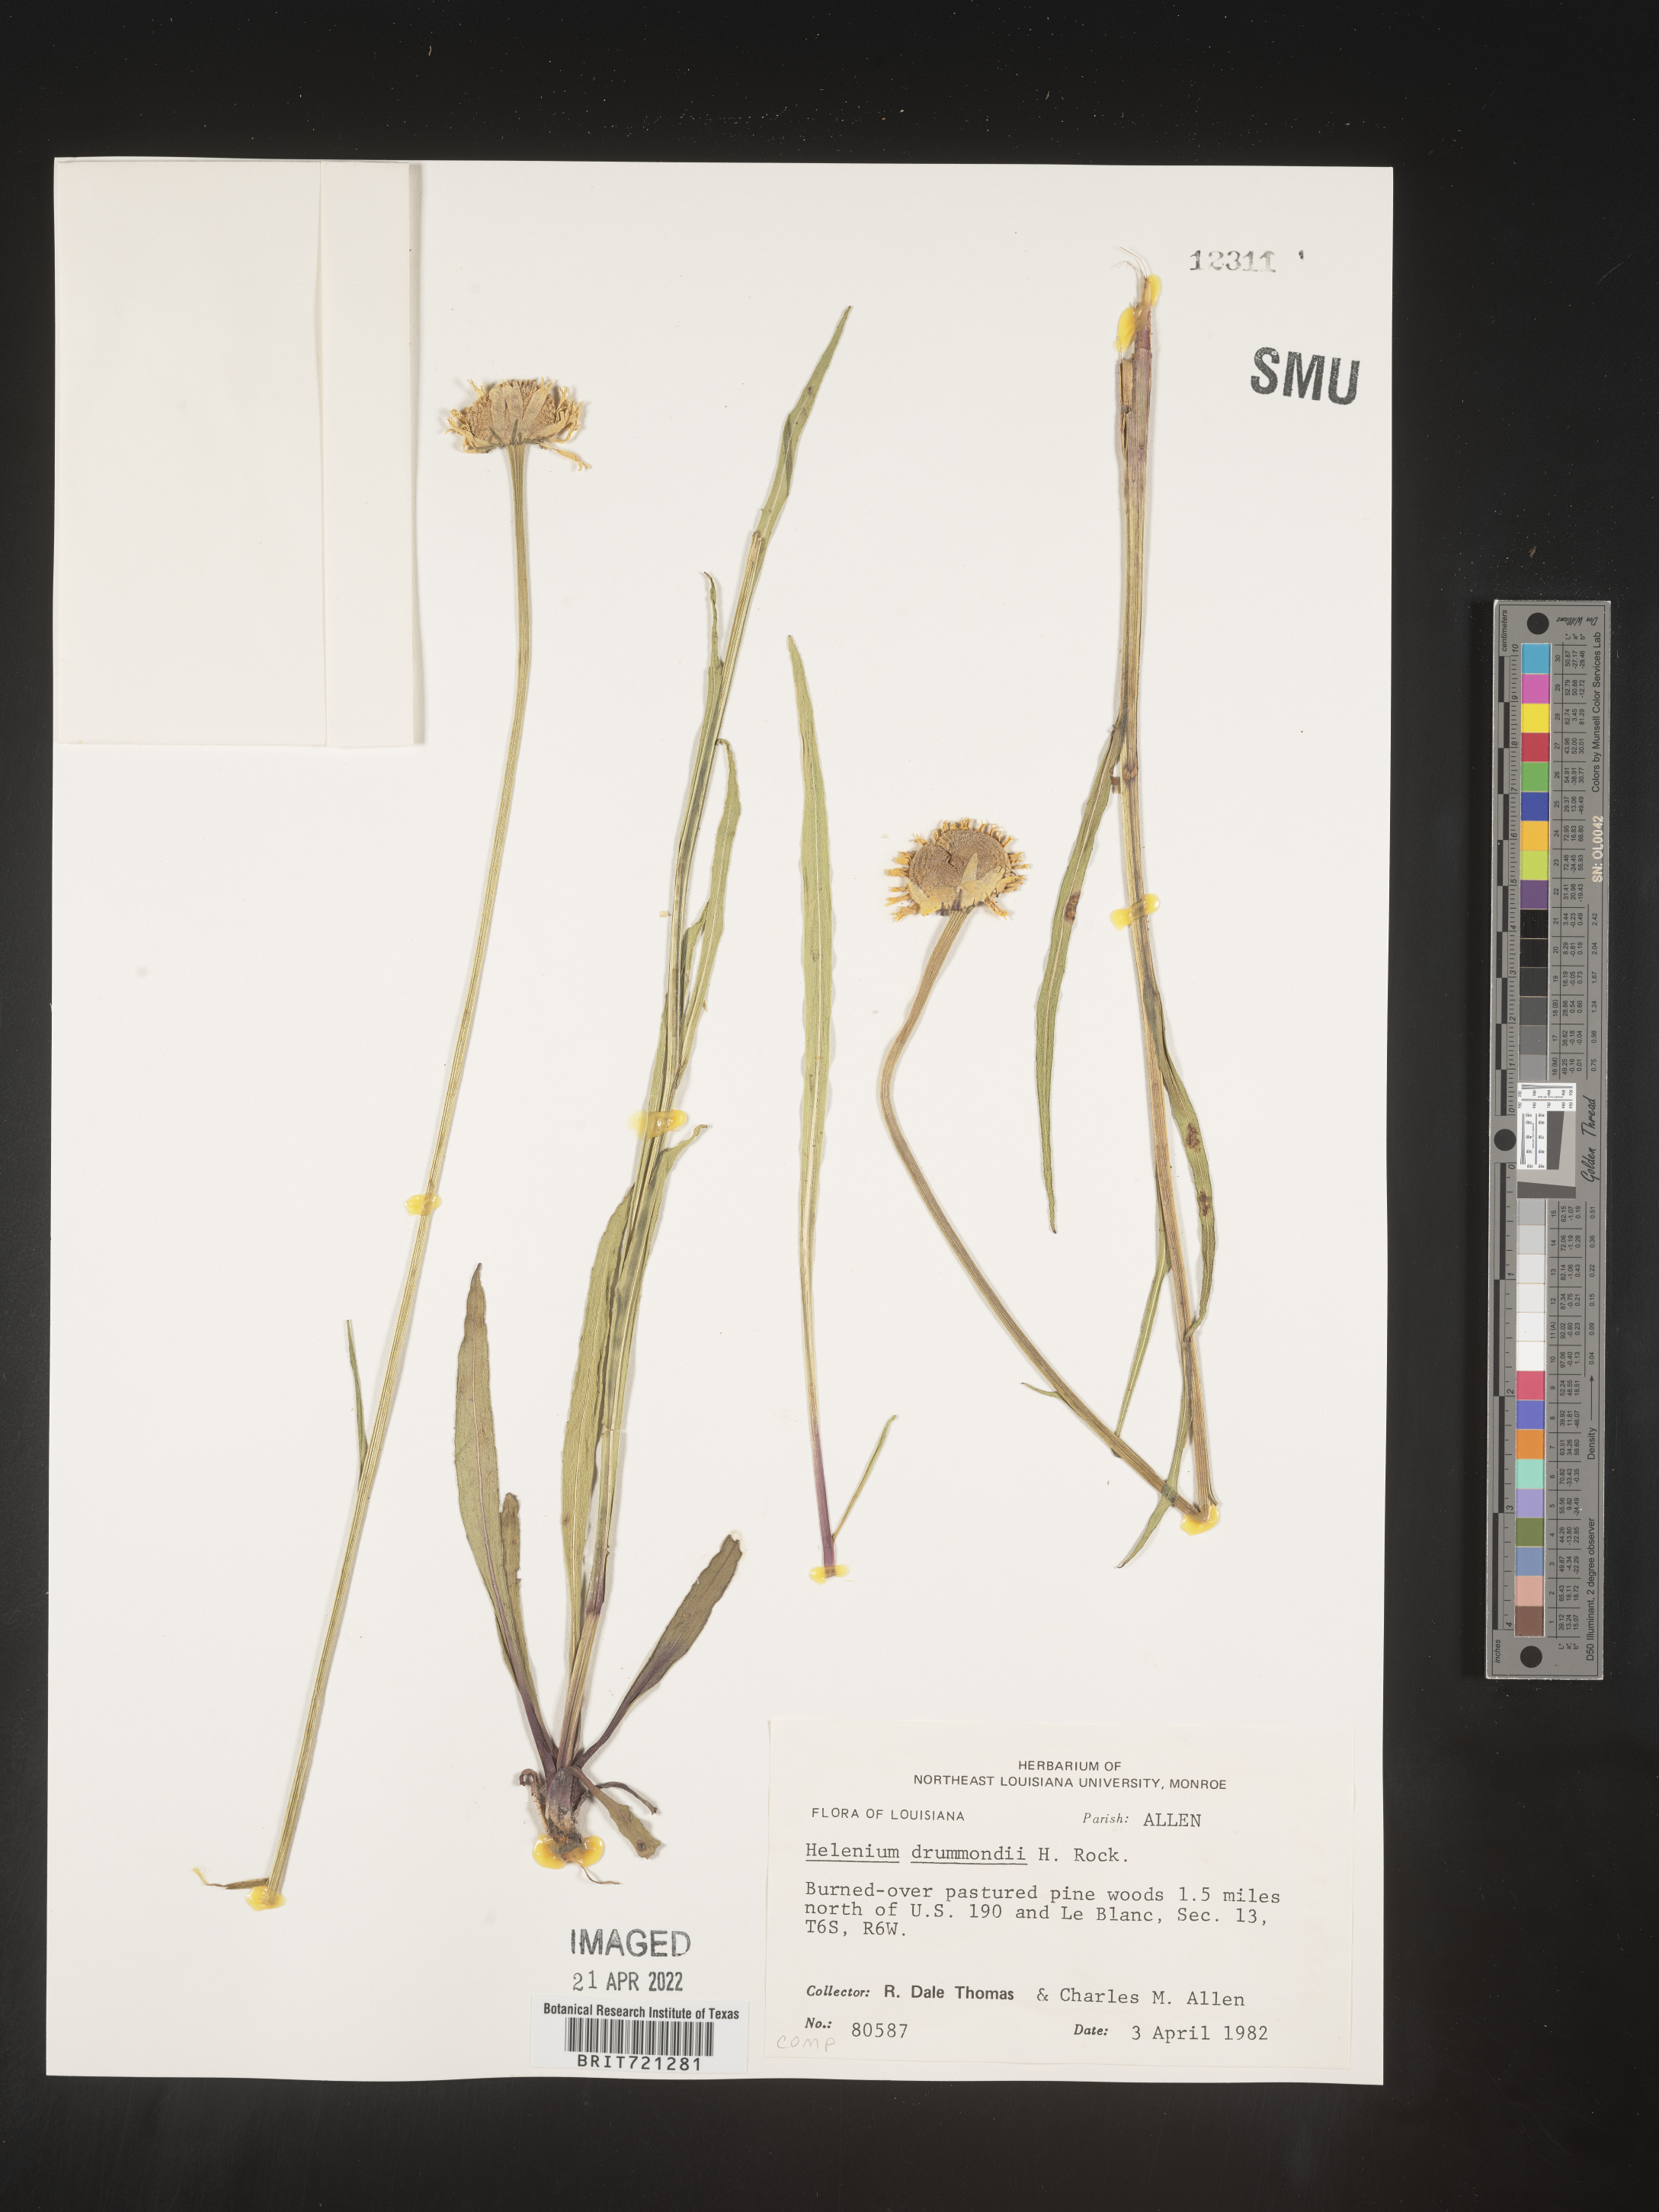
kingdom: Plantae
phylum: Tracheophyta
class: Magnoliopsida
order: Asterales
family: Asteraceae
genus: Helenium
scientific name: Helenium drummondii
